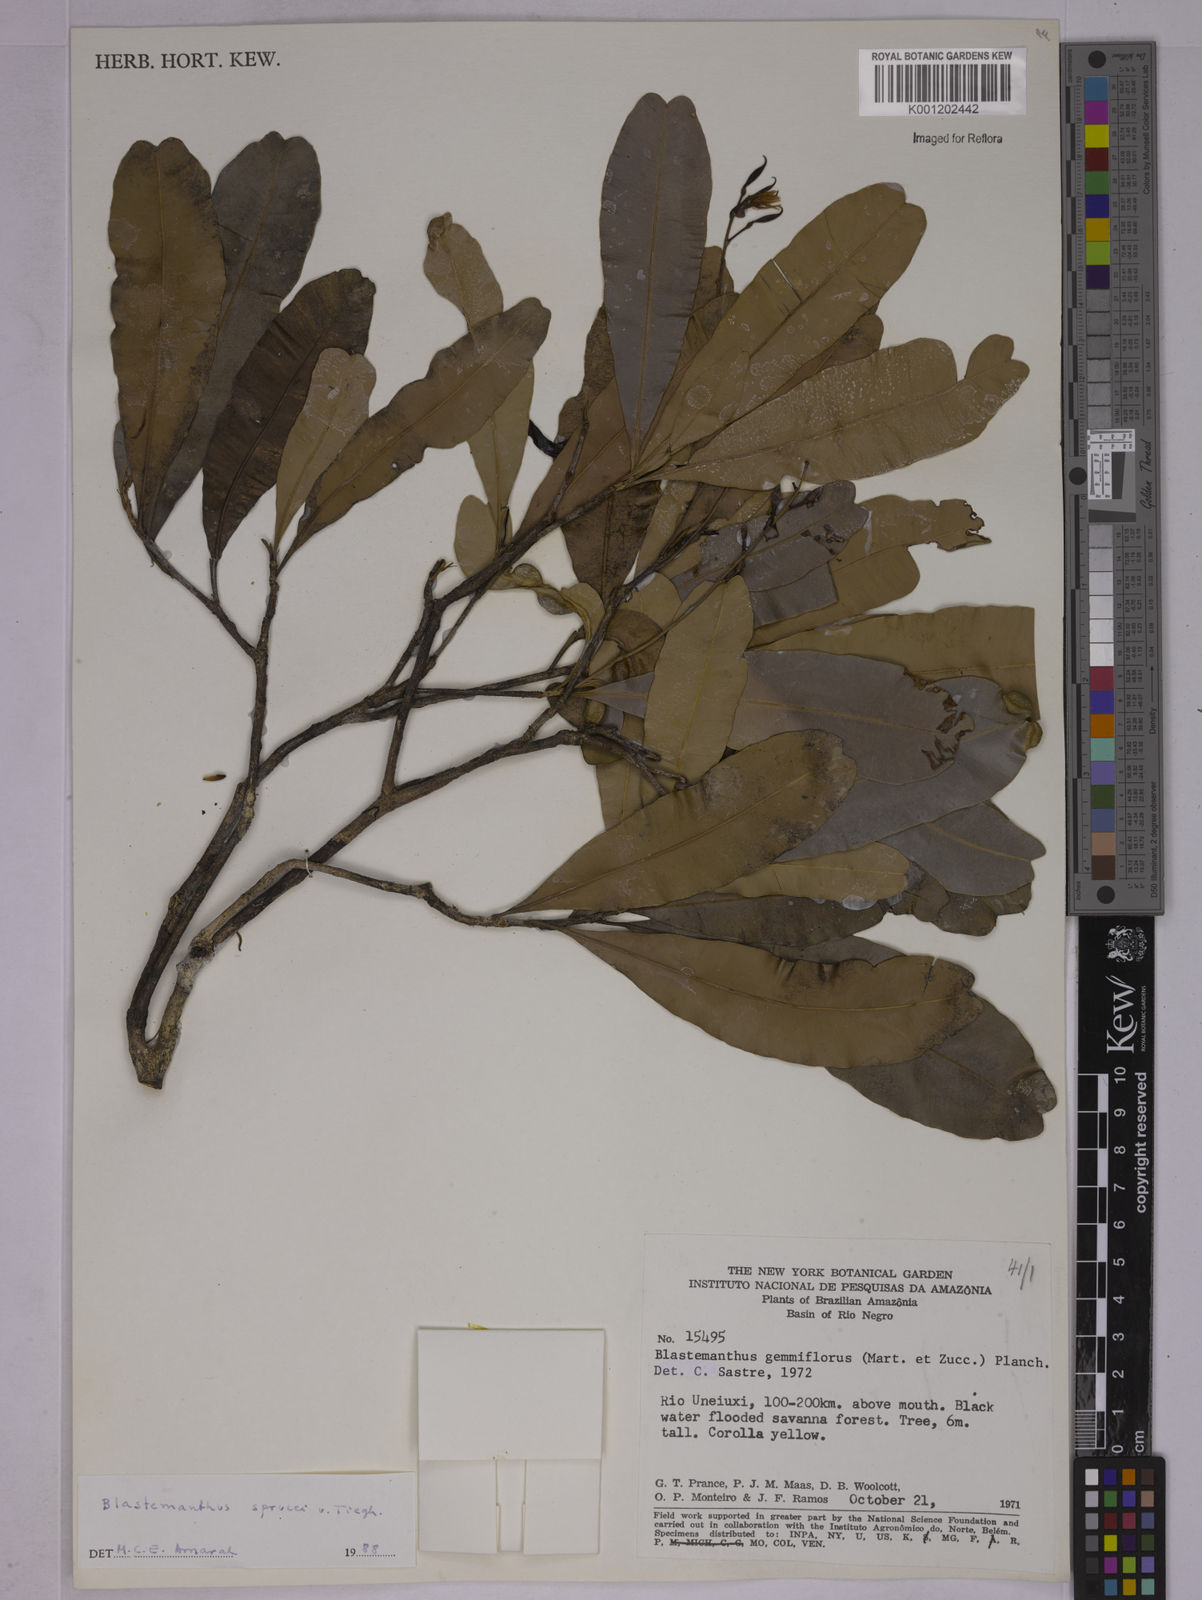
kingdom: Plantae
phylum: Tracheophyta
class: Magnoliopsida
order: Malpighiales
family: Ochnaceae
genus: Blastemanthus
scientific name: Blastemanthus gemmiflorus
